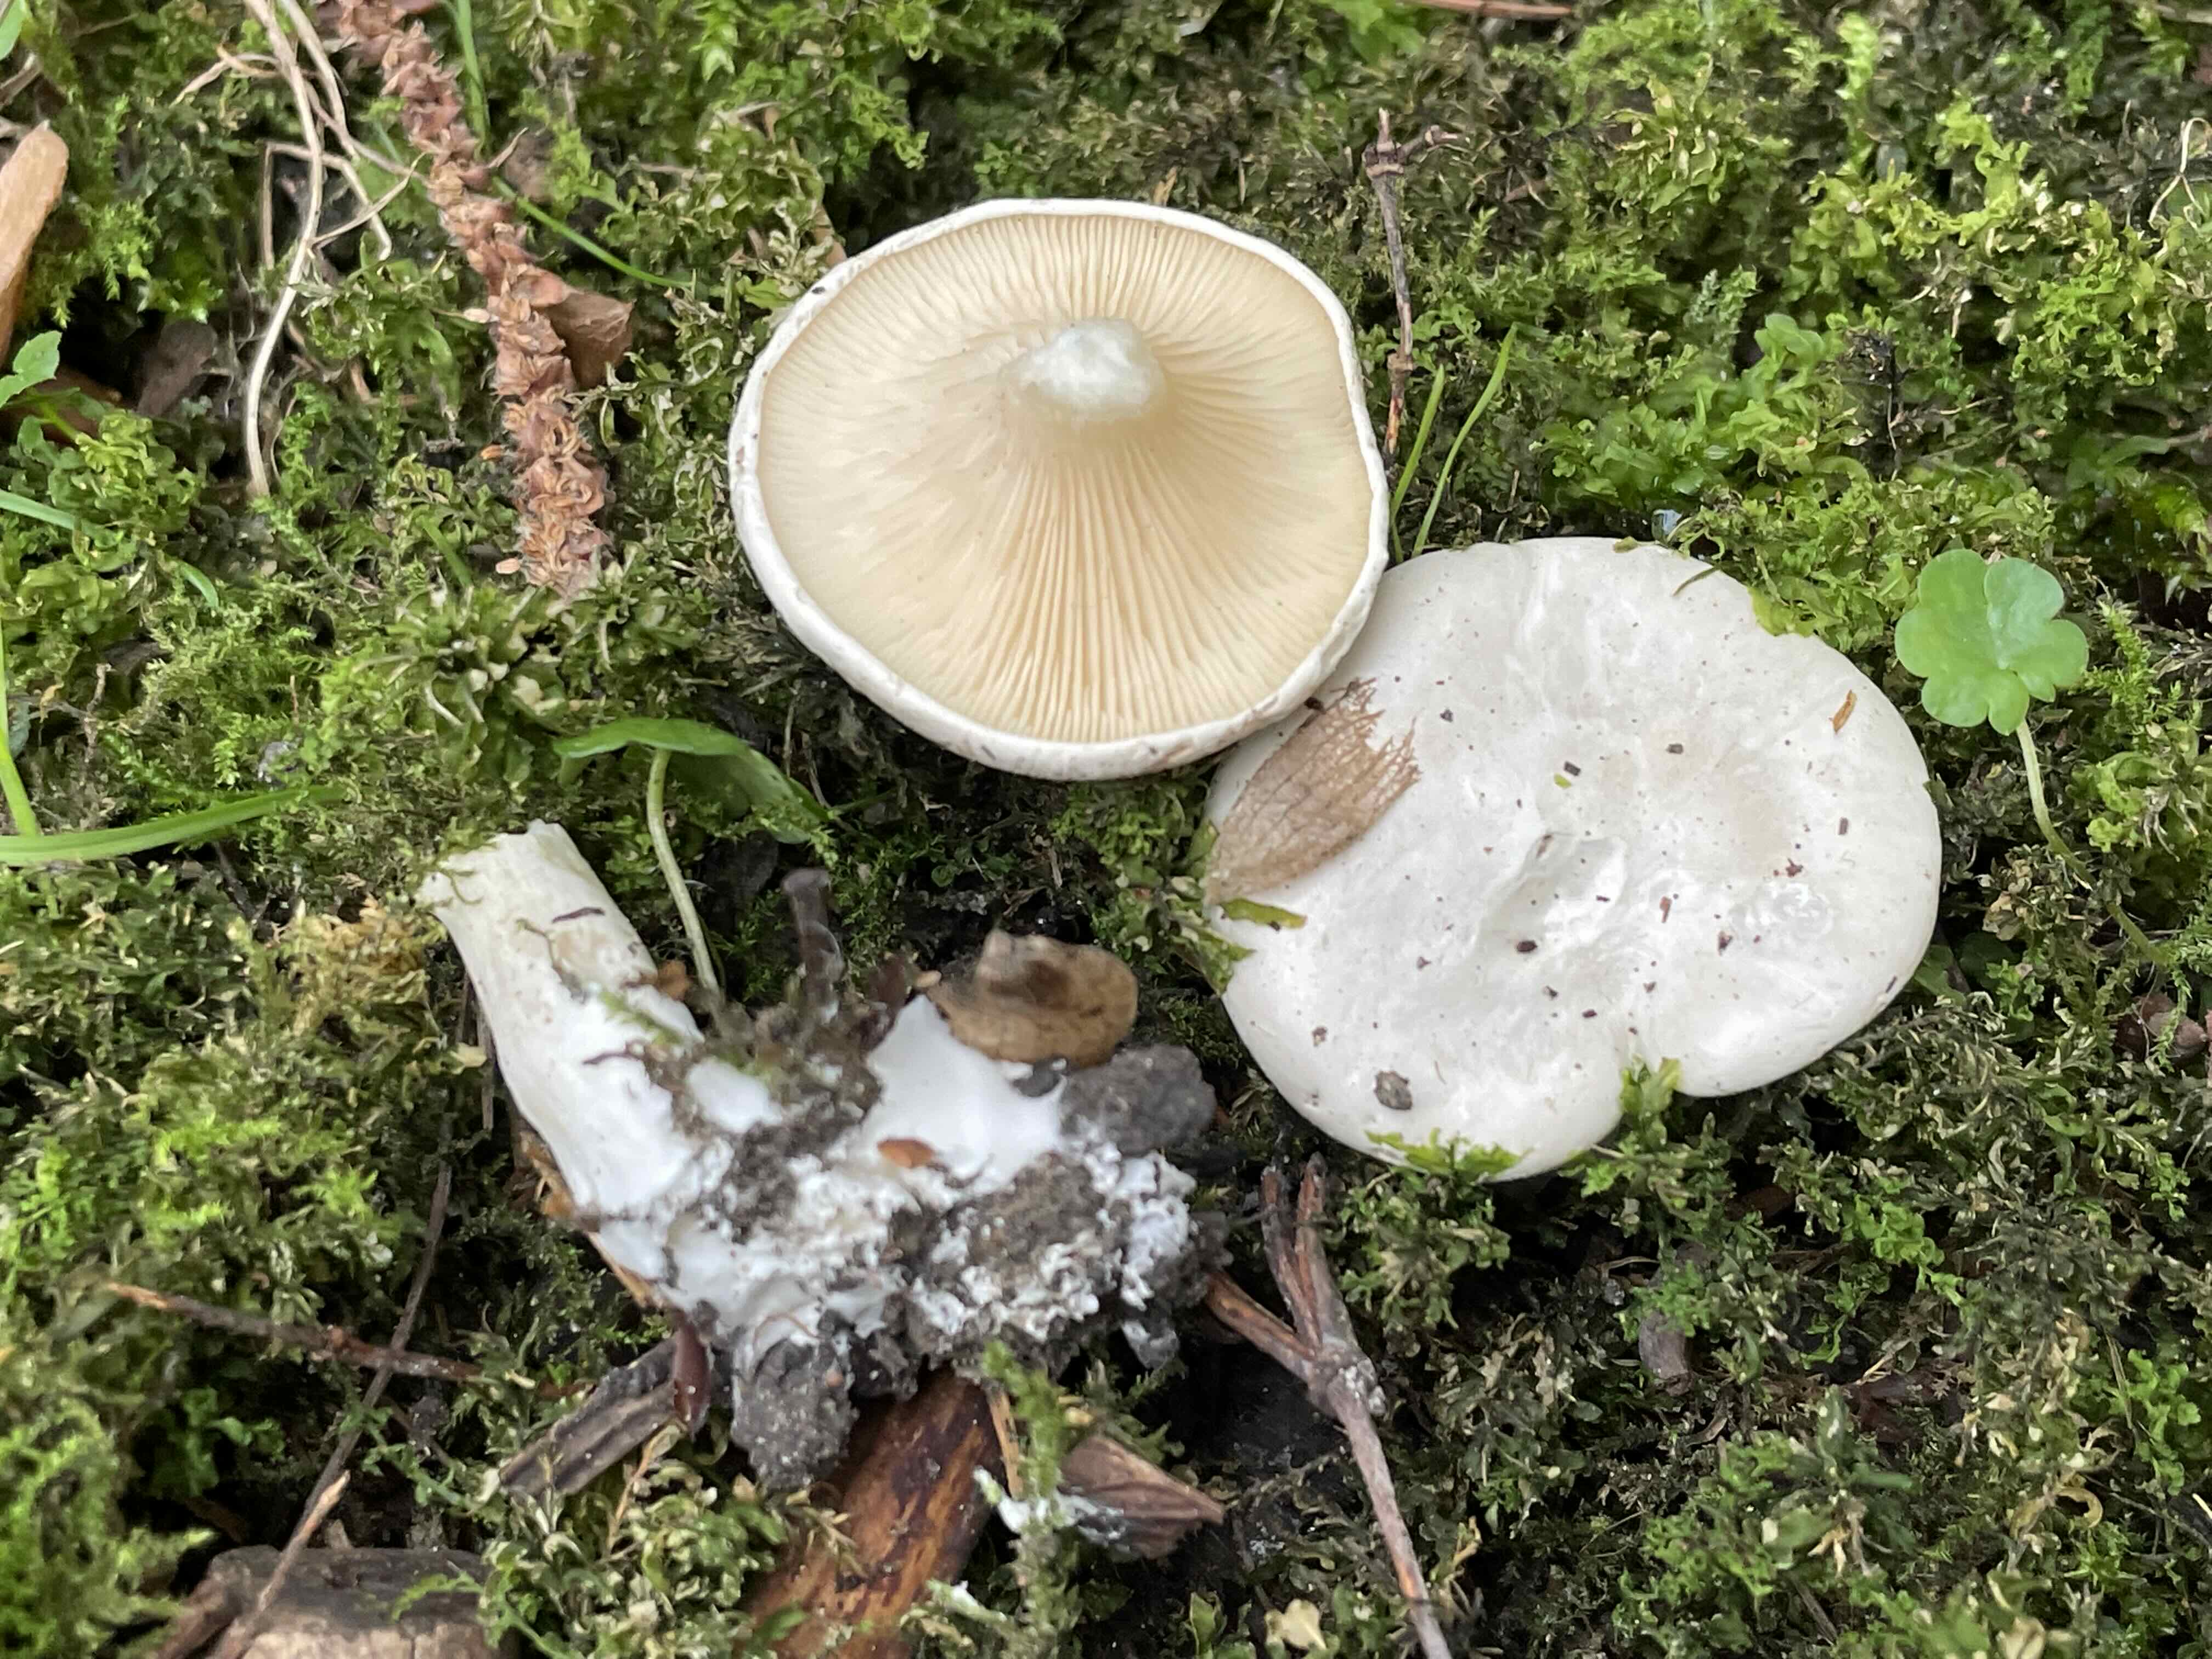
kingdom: Fungi
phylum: Basidiomycota
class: Agaricomycetes
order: Agaricales
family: Entolomataceae
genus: Clitopilus
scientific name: Clitopilus prunulus
